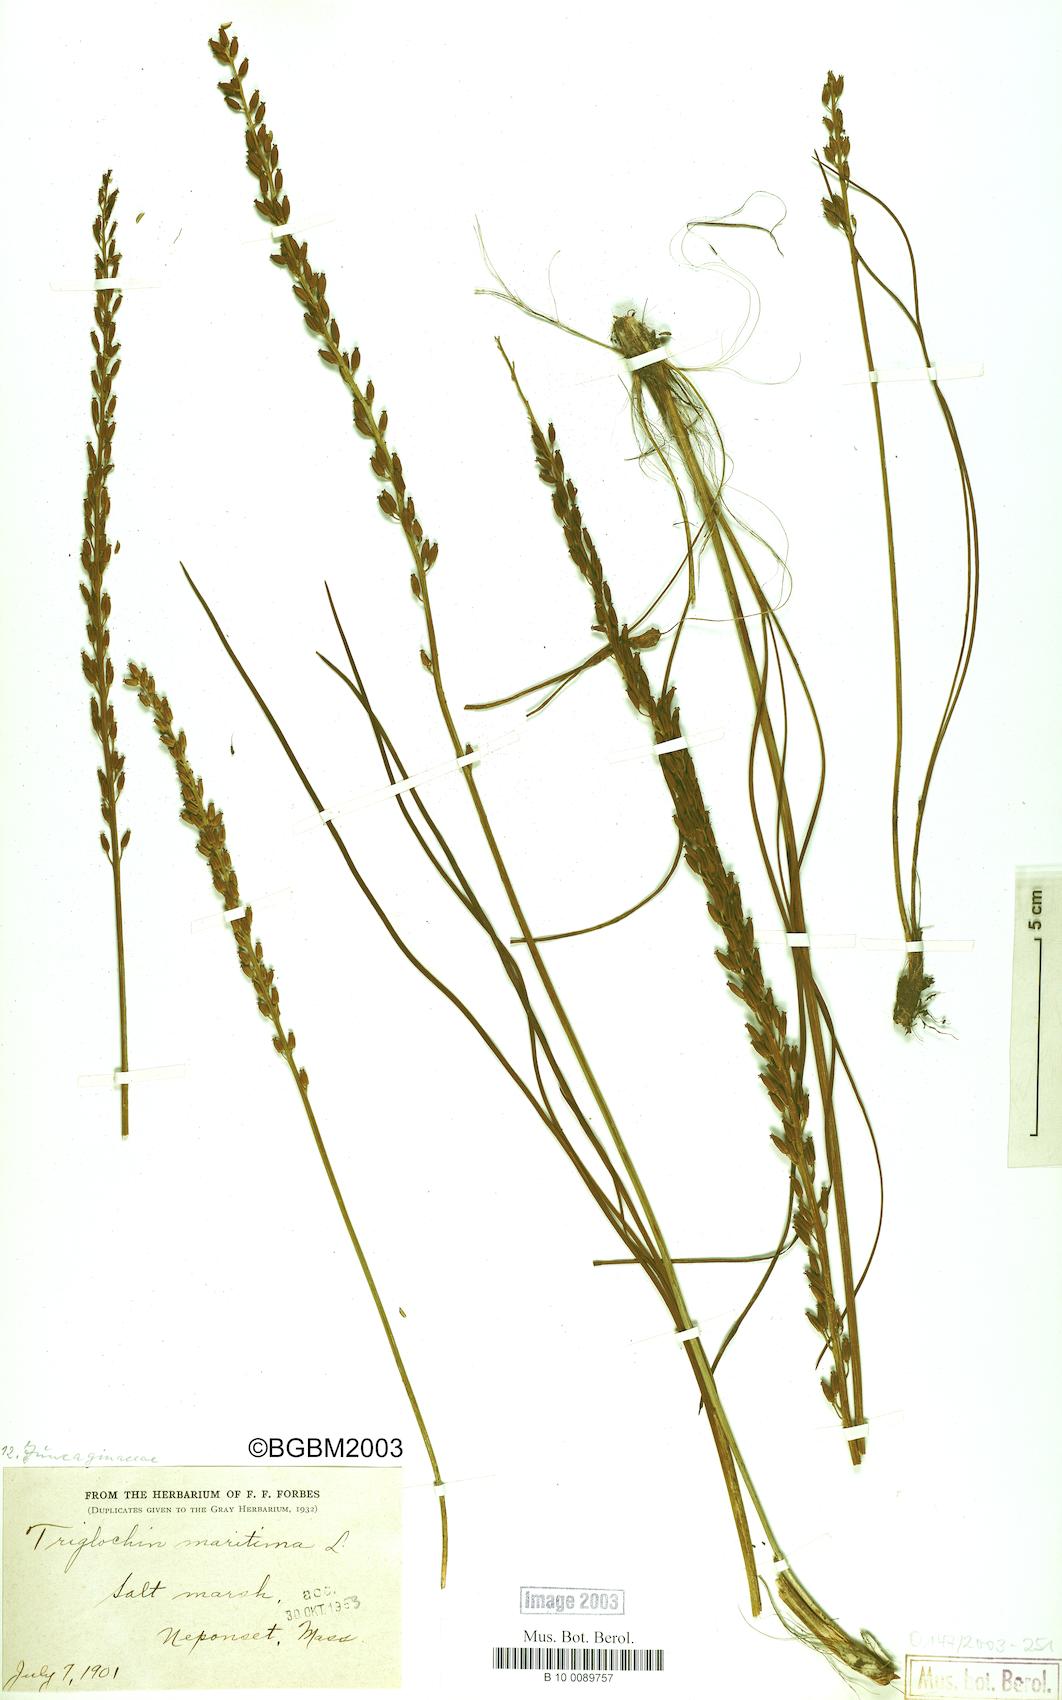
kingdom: Plantae
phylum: Tracheophyta
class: Liliopsida
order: Alismatales
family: Juncaginaceae
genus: Triglochin
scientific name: Triglochin maritima
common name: Sea arrowgrass
